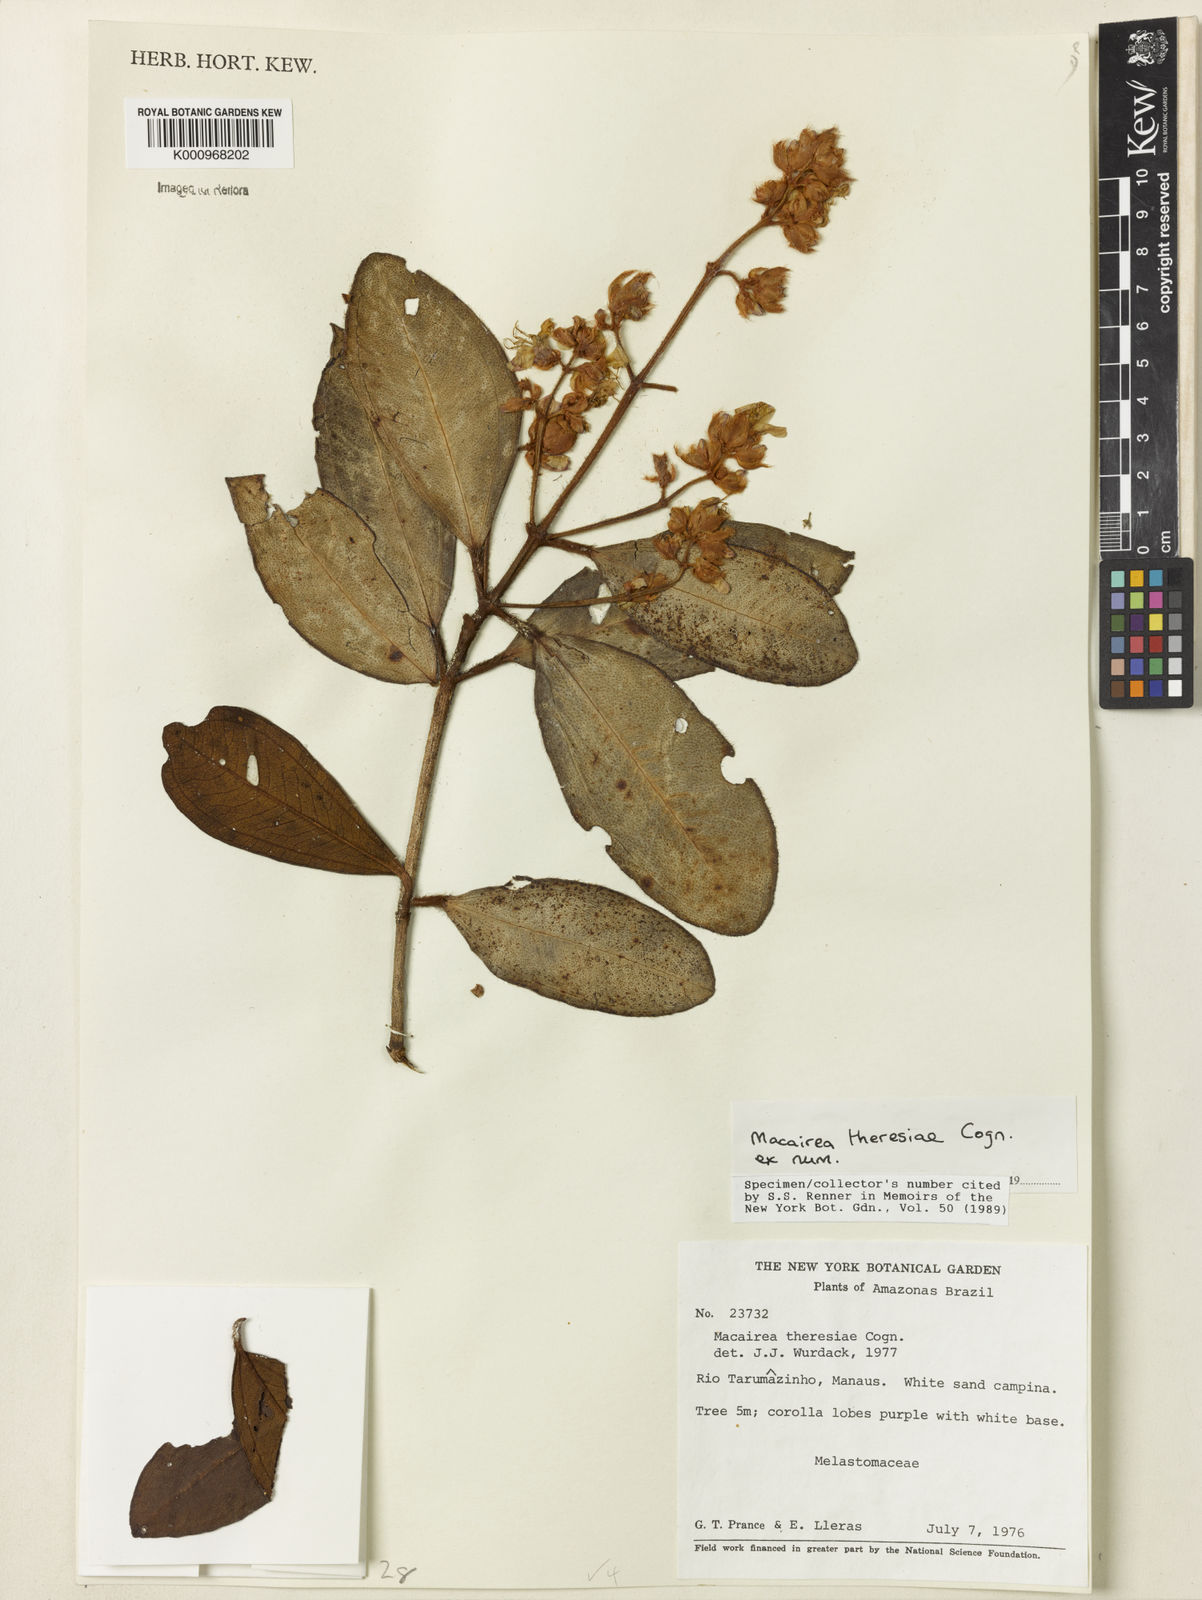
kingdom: Plantae
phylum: Tracheophyta
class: Magnoliopsida
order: Myrtales
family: Melastomataceae
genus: Macairea
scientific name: Macairea theresiae
